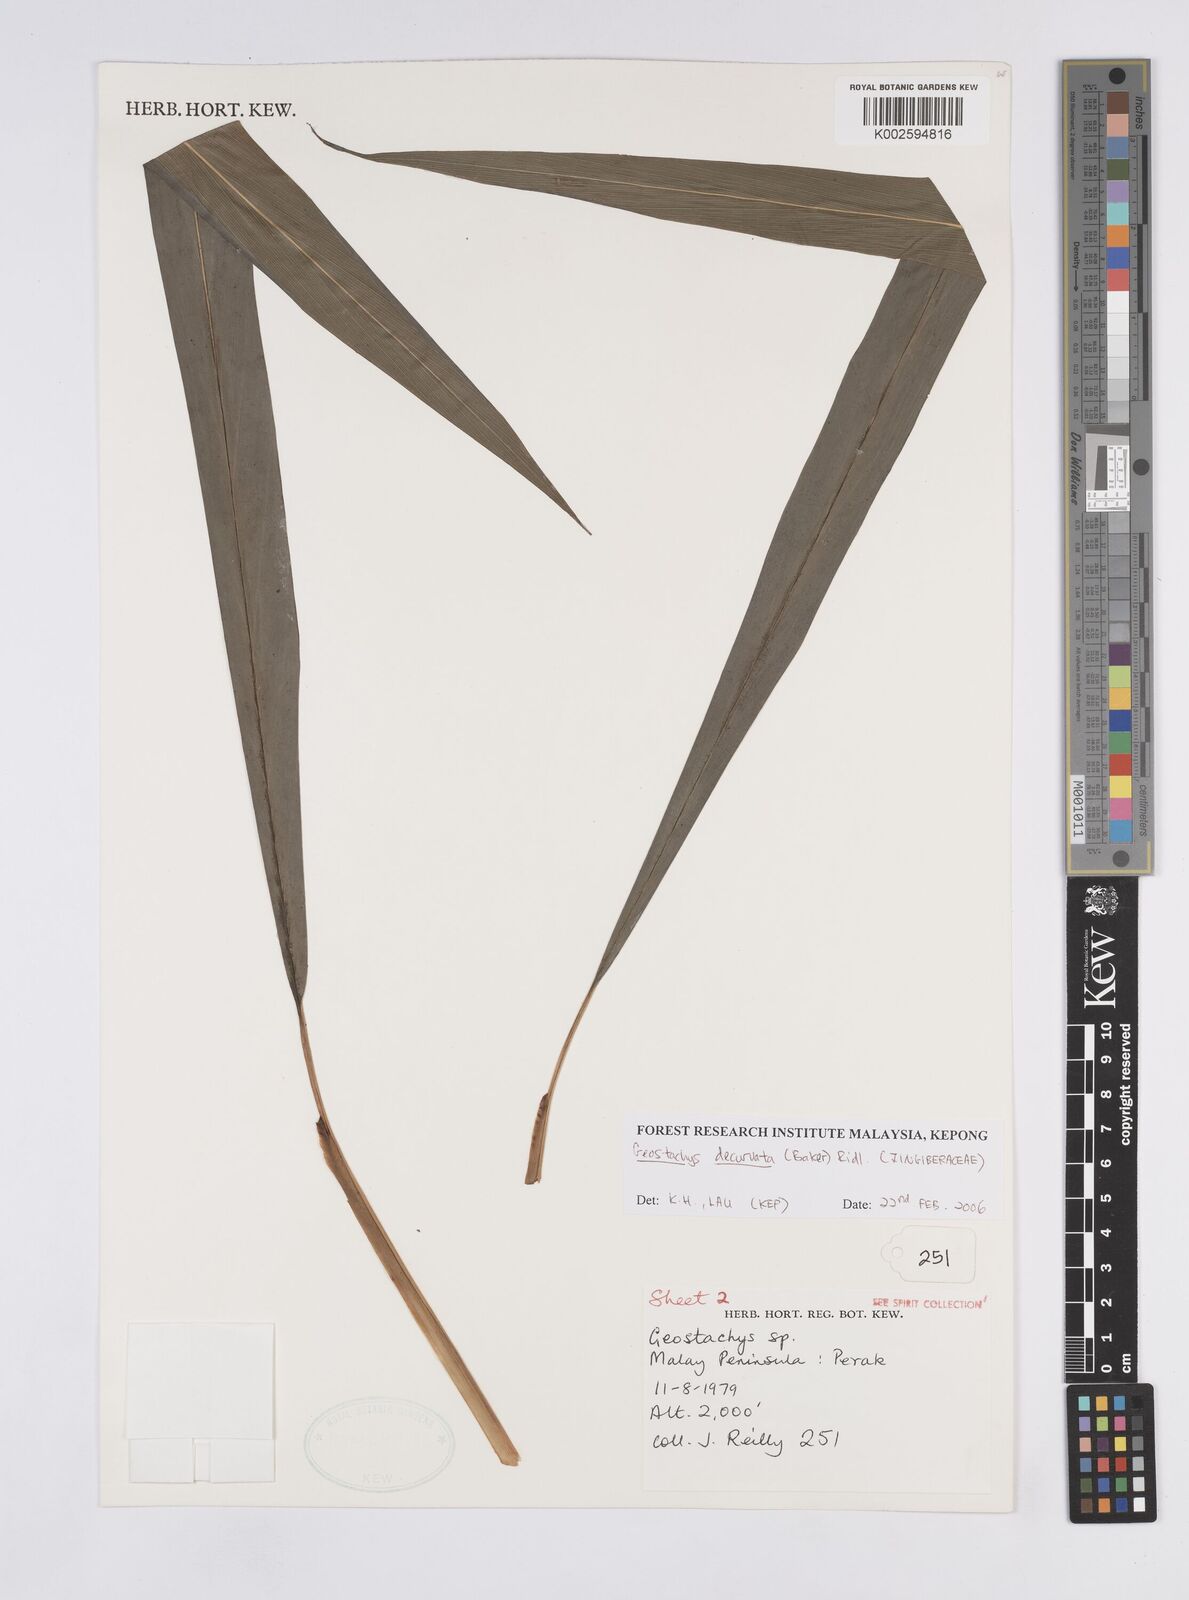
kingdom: Plantae
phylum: Tracheophyta
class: Liliopsida
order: Zingiberales
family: Zingiberaceae
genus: Geostachys
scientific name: Geostachys decurvata
